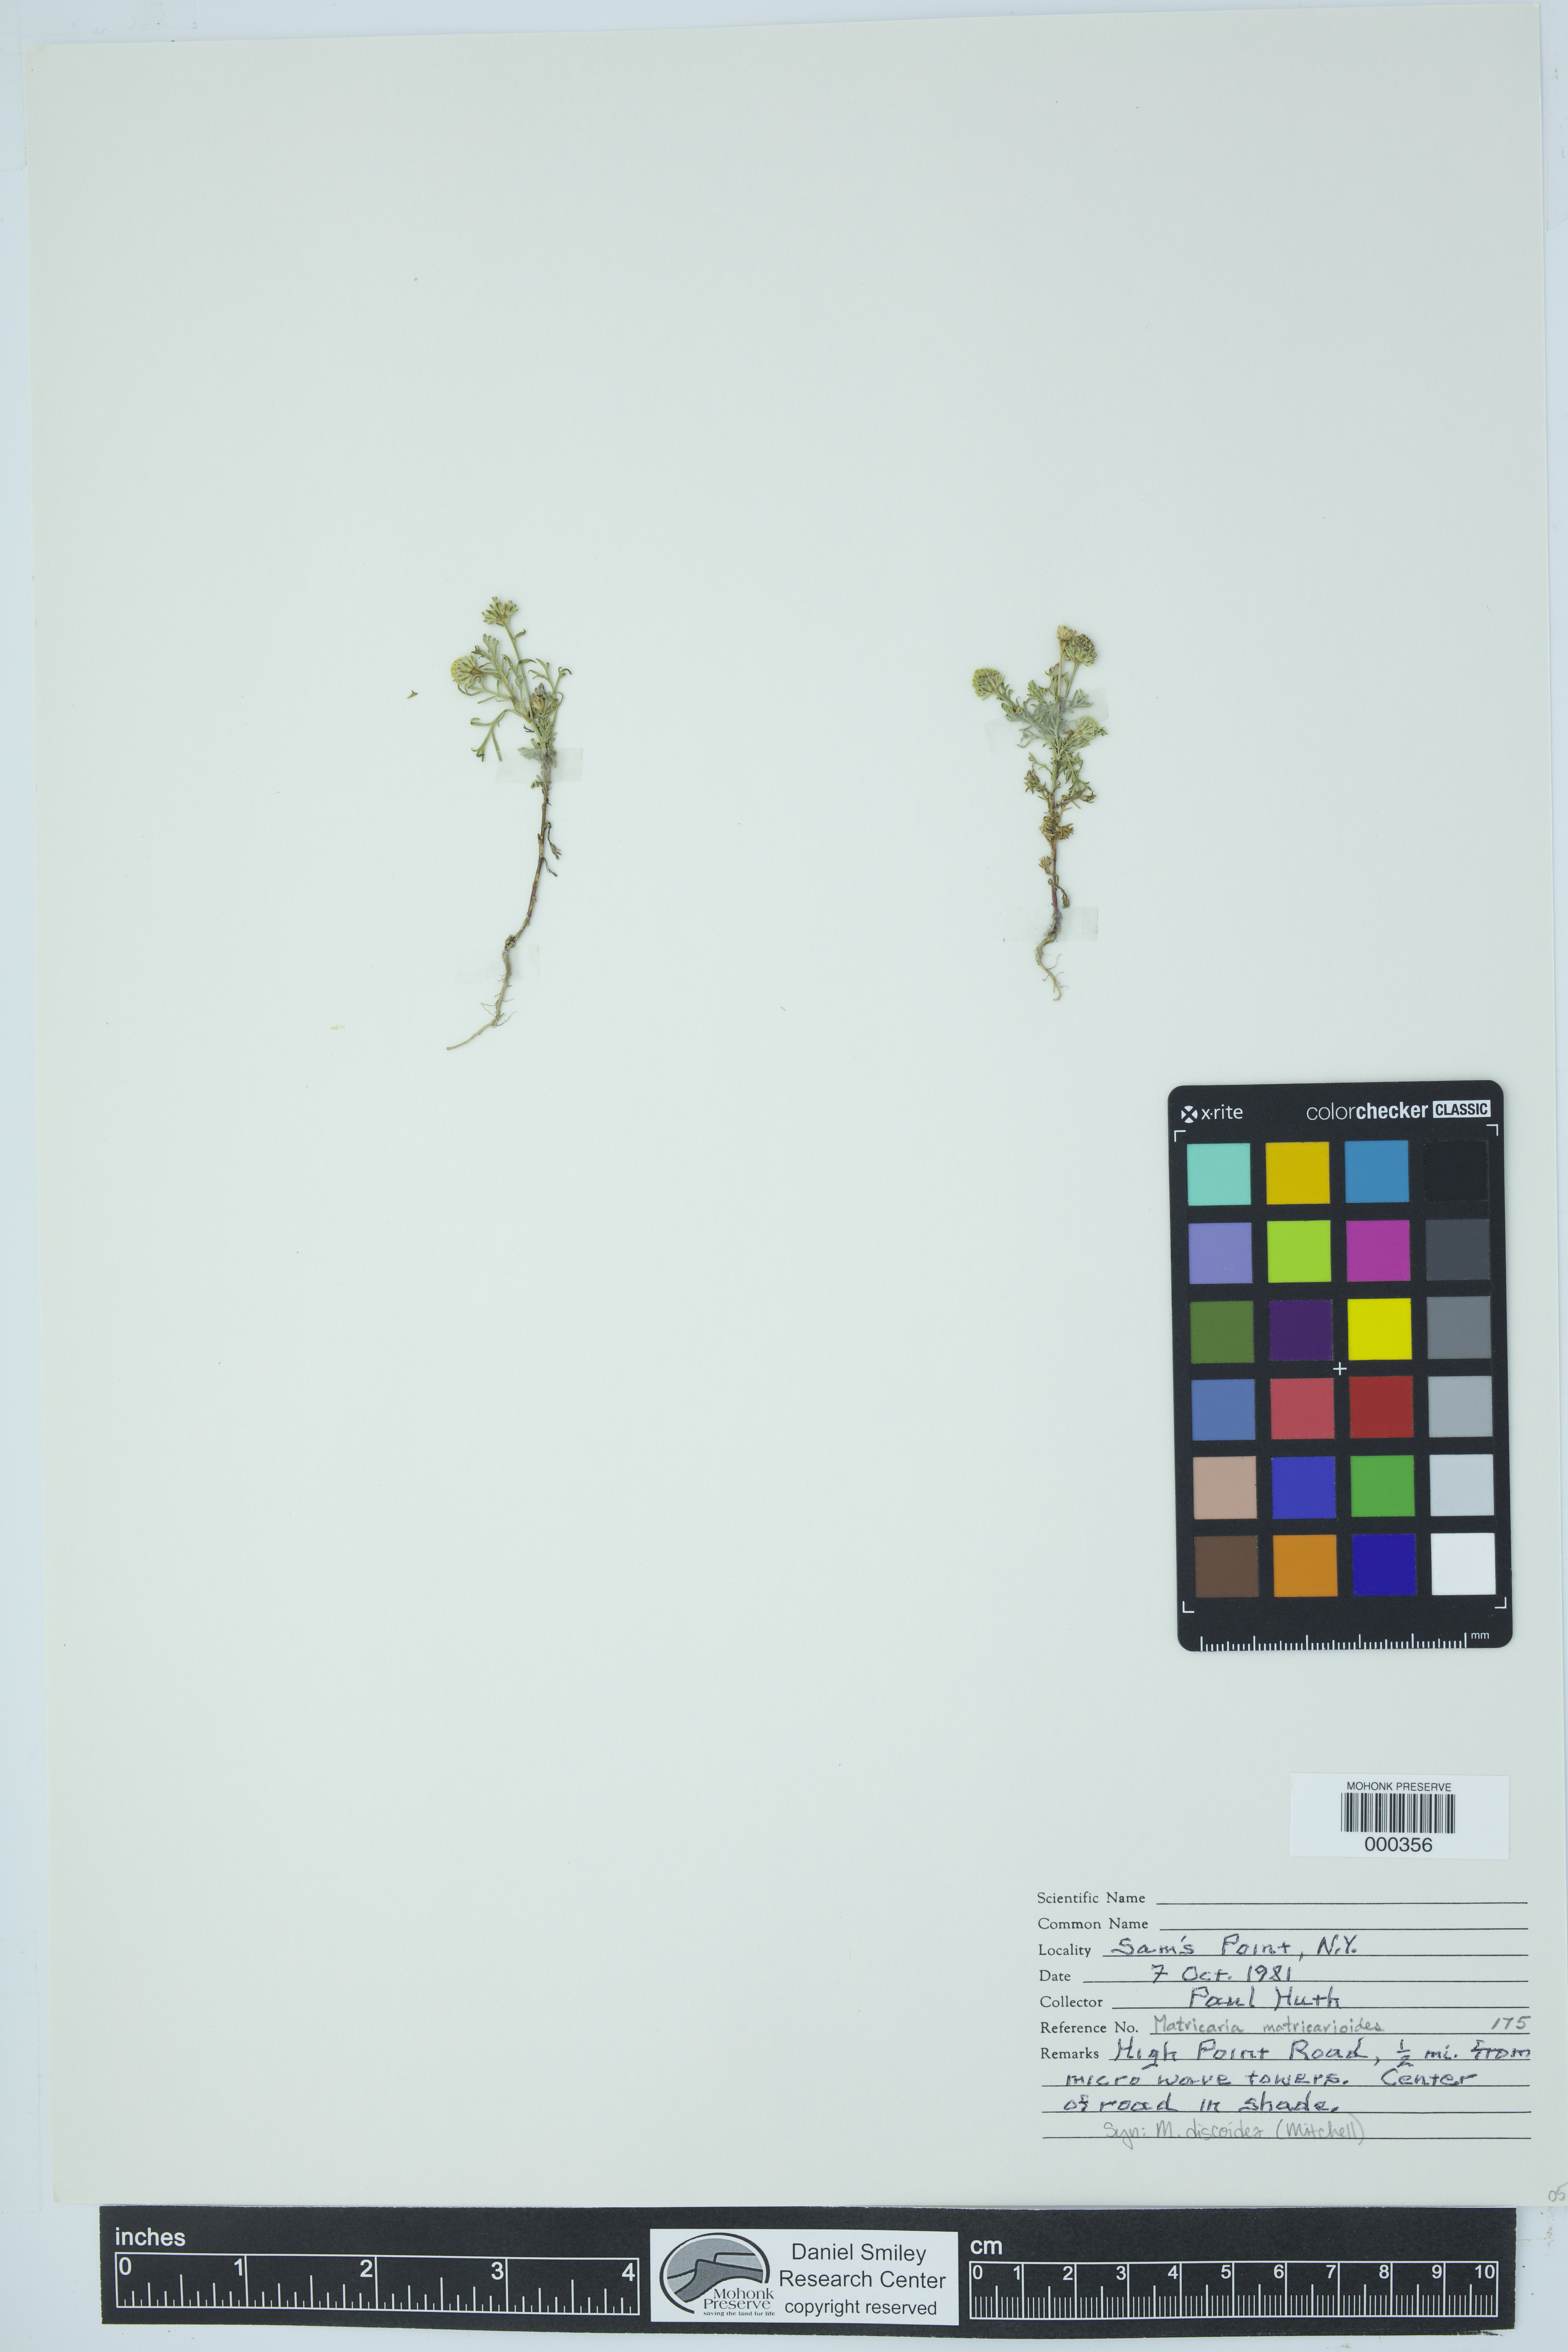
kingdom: Plantae
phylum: Tracheophyta
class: Magnoliopsida
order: Asterales
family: Asteraceae
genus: Matricaria
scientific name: Matricaria discoidea
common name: Disc mayweed
